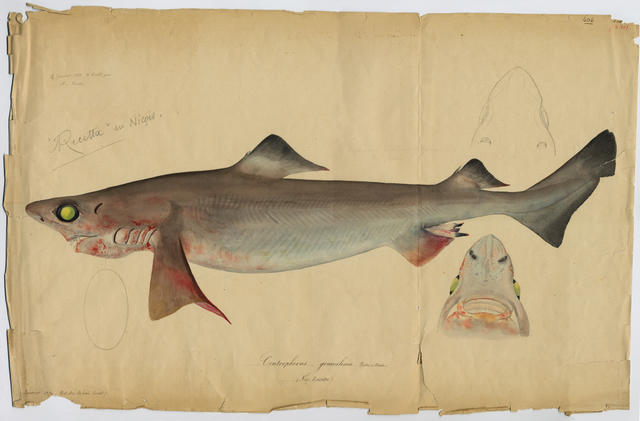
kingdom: Animalia
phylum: Chordata
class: Elasmobranchii
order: Squaliformes
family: Centrophoridae
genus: Centrophorus
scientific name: Centrophorus squamosus
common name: Leafscale gulper shark
